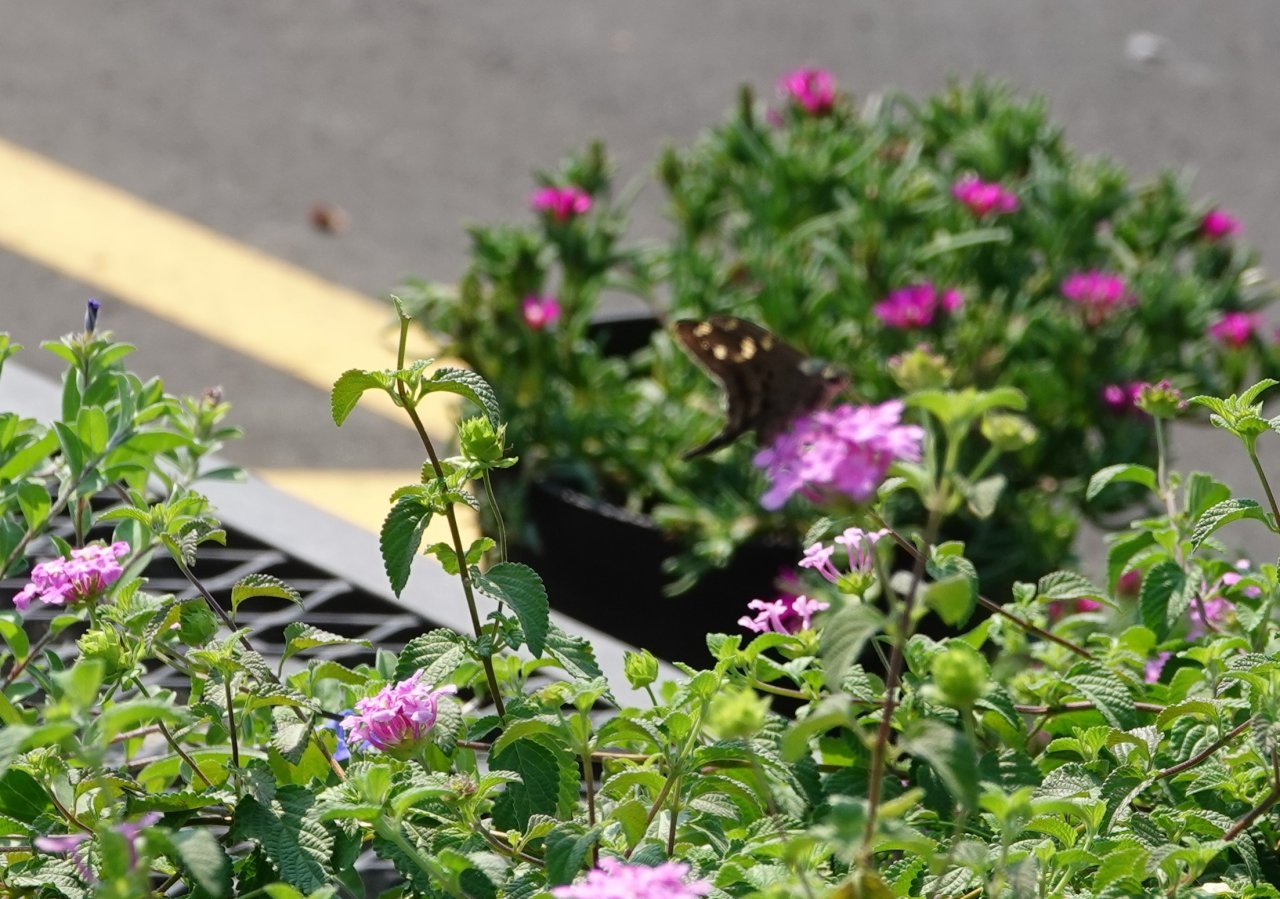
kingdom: Animalia
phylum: Arthropoda
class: Insecta
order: Lepidoptera
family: Hesperiidae
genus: Urbanus
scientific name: Urbanus proteus
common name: Long-tailed Skipper
